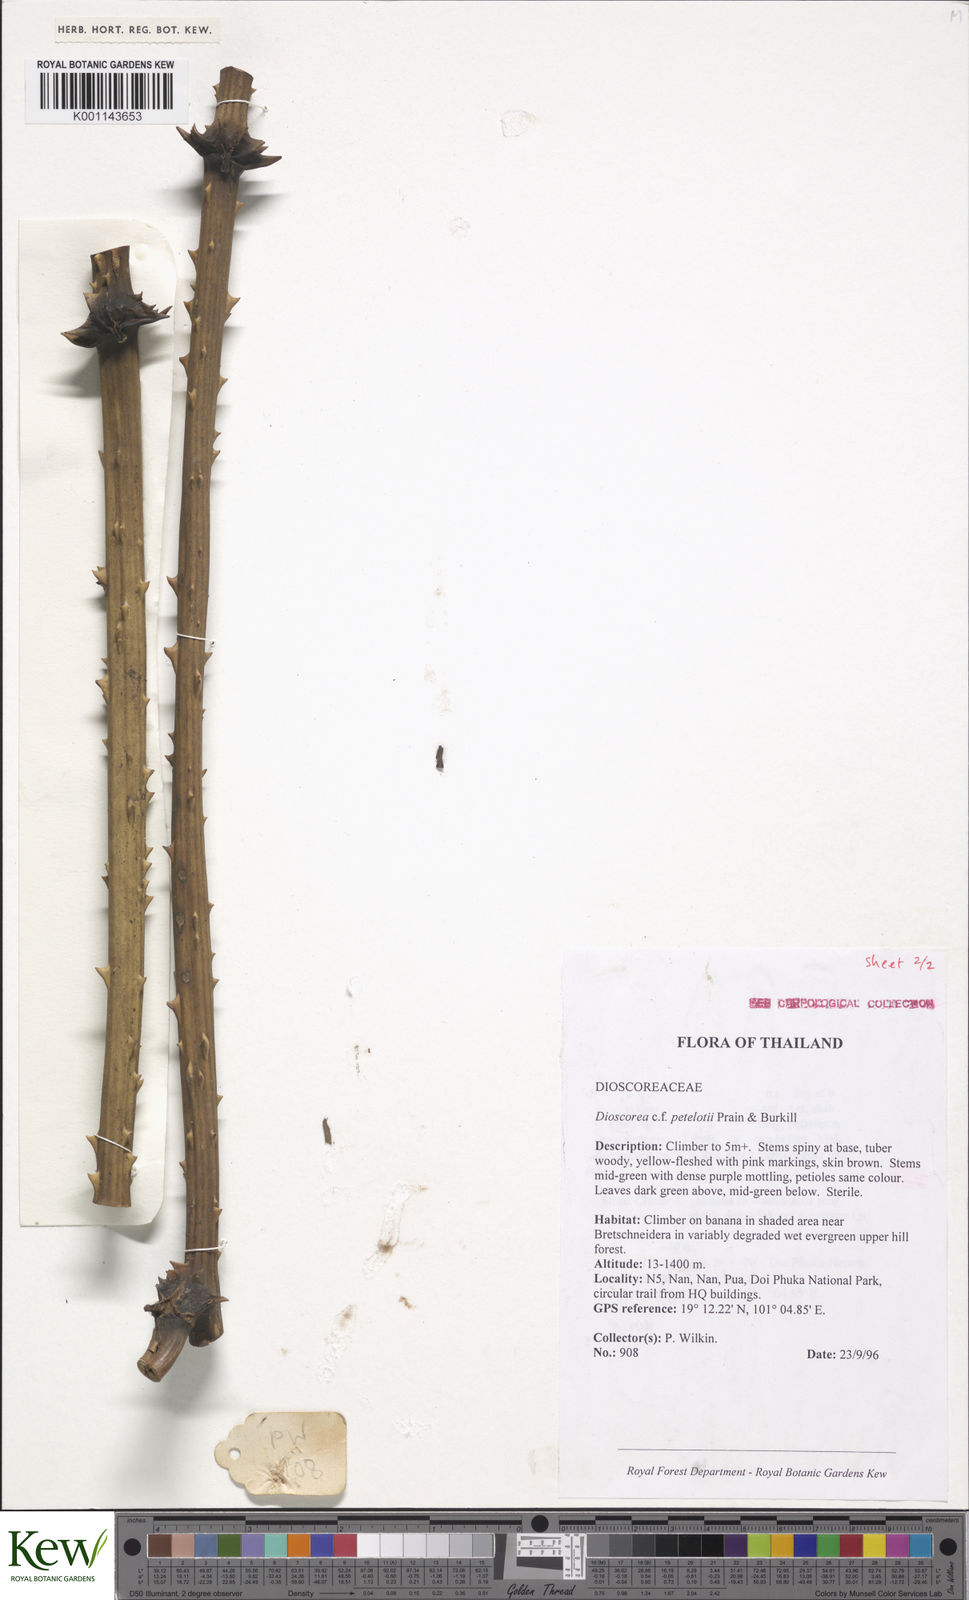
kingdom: Plantae
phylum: Tracheophyta
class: Liliopsida
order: Dioscoreales
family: Dioscoreaceae
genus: Dioscorea
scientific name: Dioscorea petelotii
